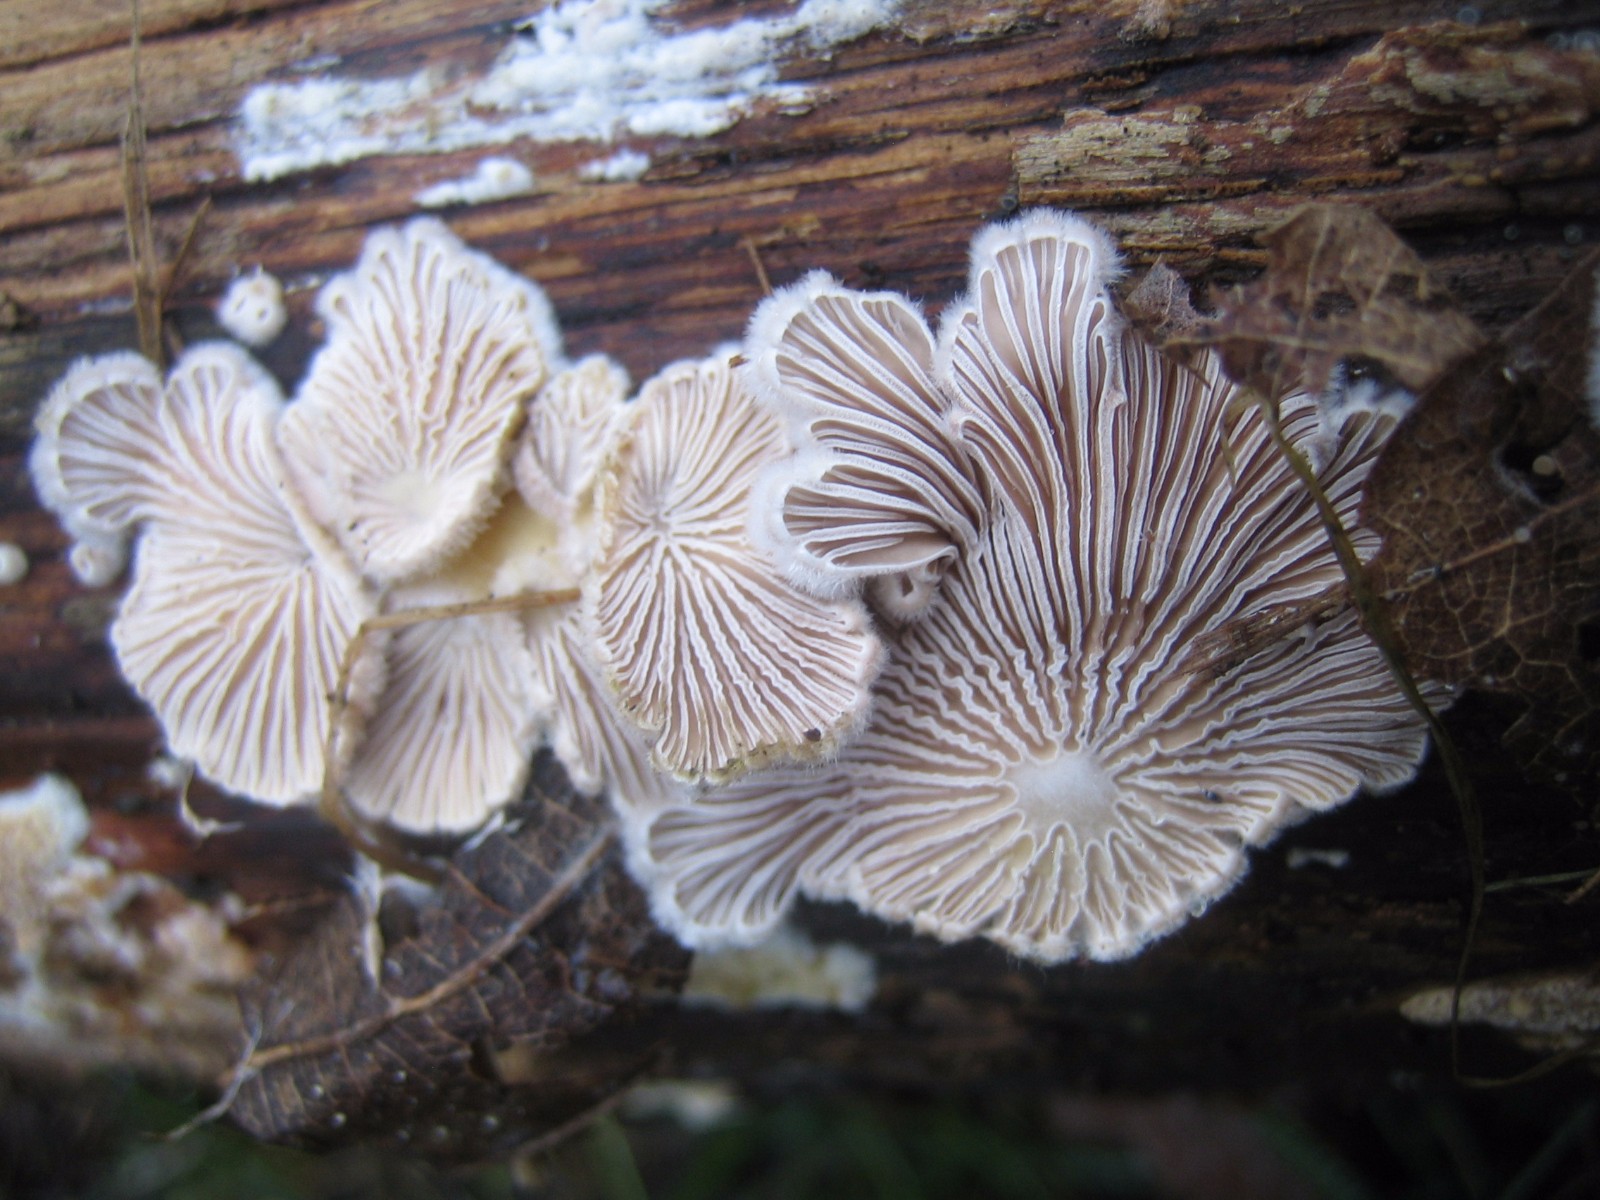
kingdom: Fungi
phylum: Basidiomycota
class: Agaricomycetes
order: Agaricales
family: Schizophyllaceae
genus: Schizophyllum
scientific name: Schizophyllum commune
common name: kløvblad
